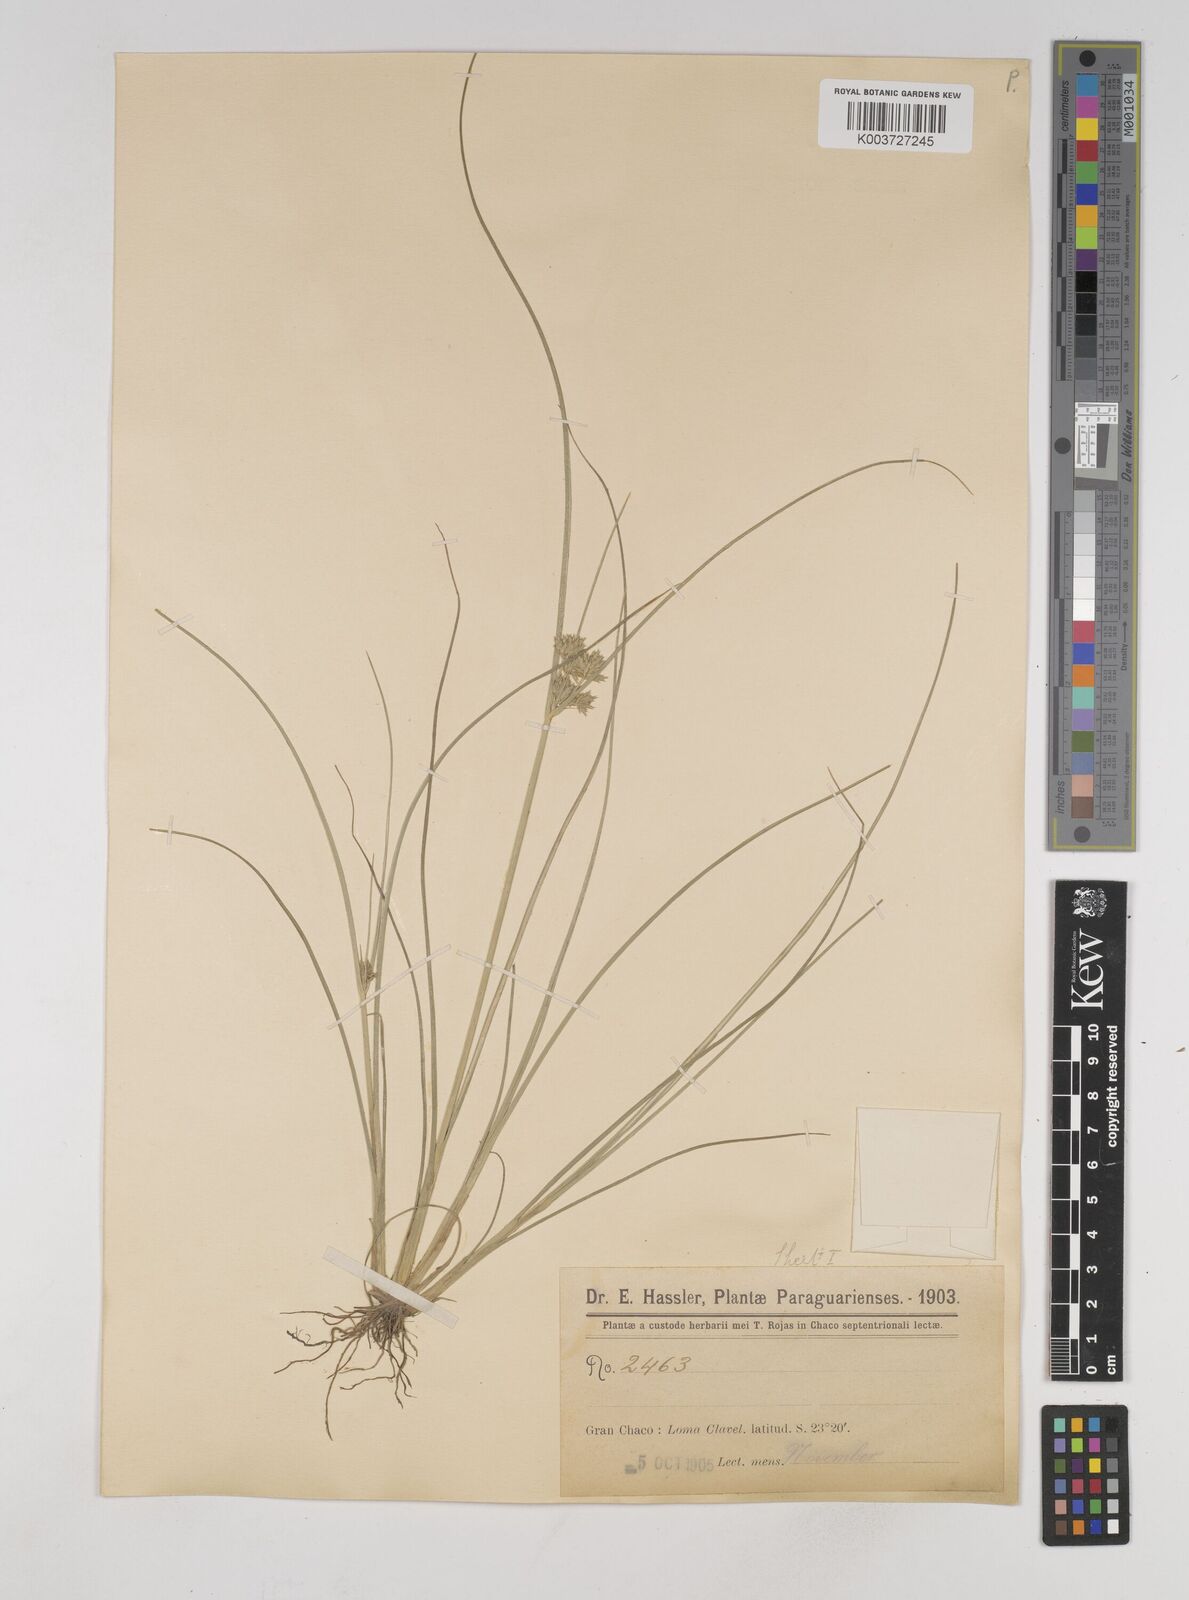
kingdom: Plantae
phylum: Tracheophyta
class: Liliopsida
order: Poales
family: Cyperaceae
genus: Cyperus
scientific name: Cyperus elegans
